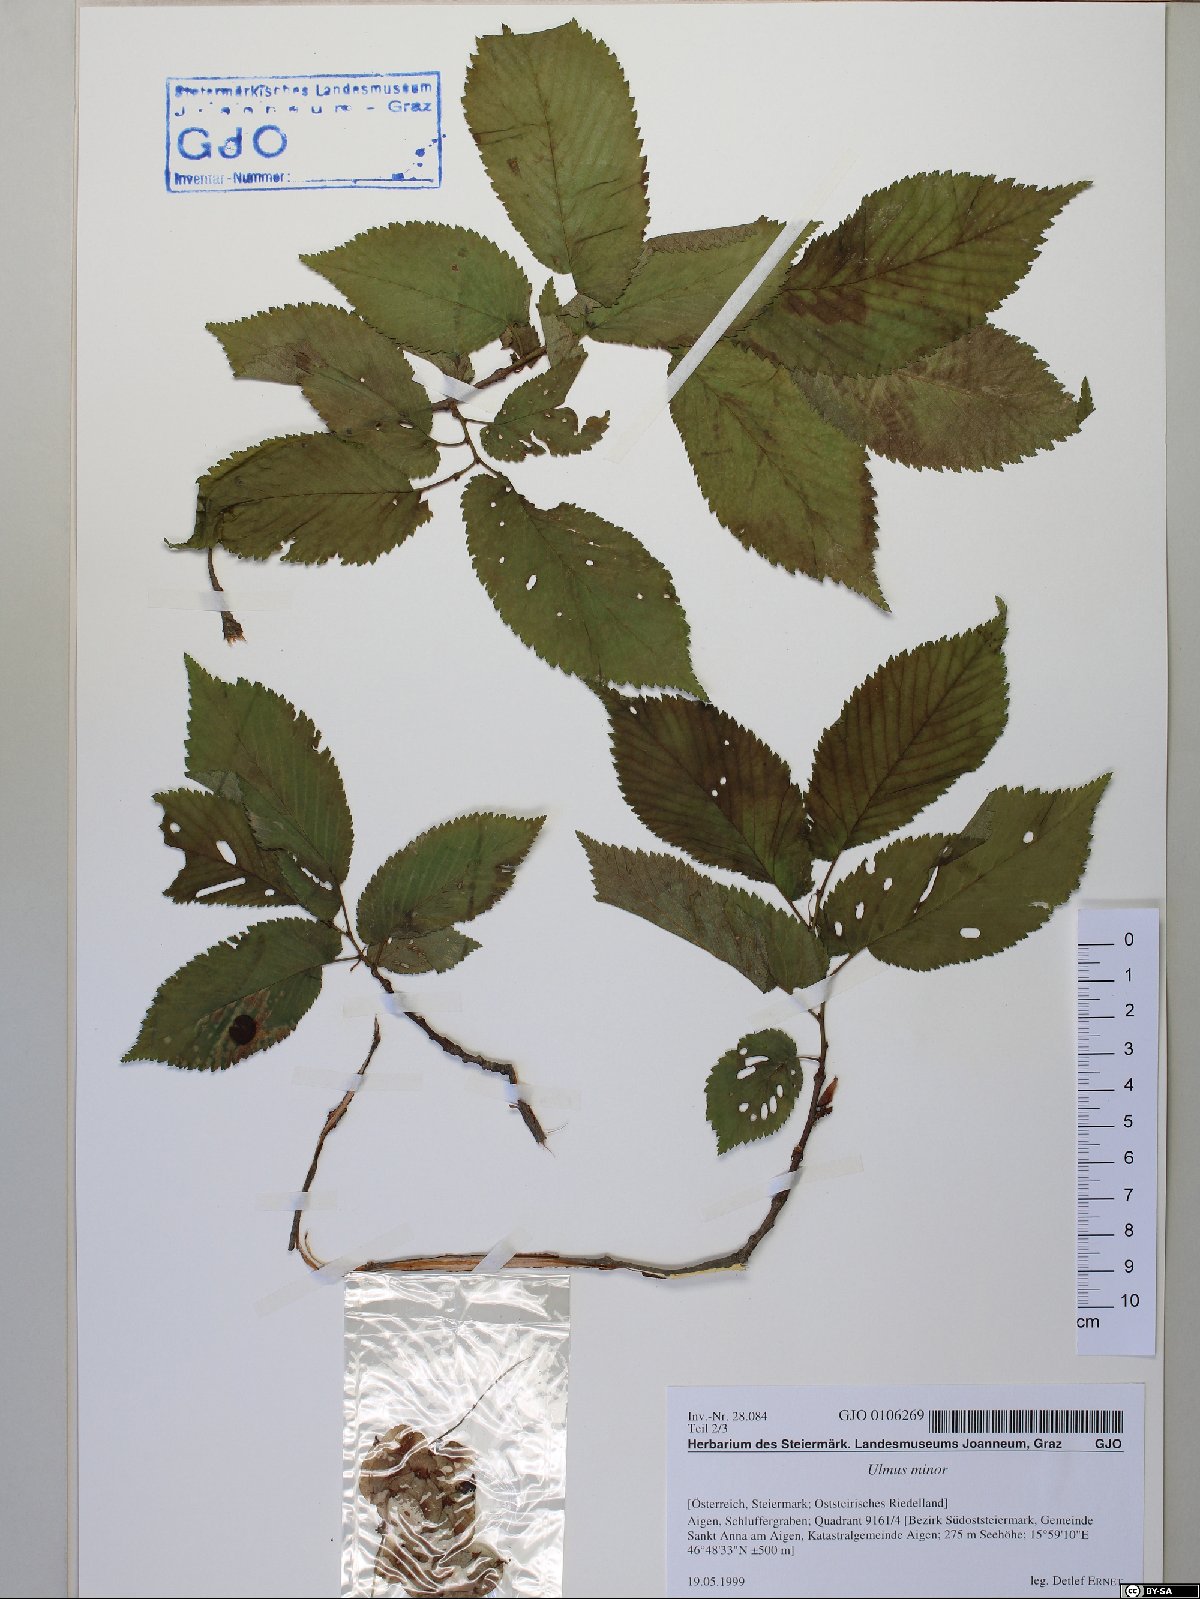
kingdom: Plantae
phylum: Tracheophyta
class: Magnoliopsida
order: Rosales
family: Ulmaceae
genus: Ulmus
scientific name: Ulmus minor
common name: Small-leaved elm
